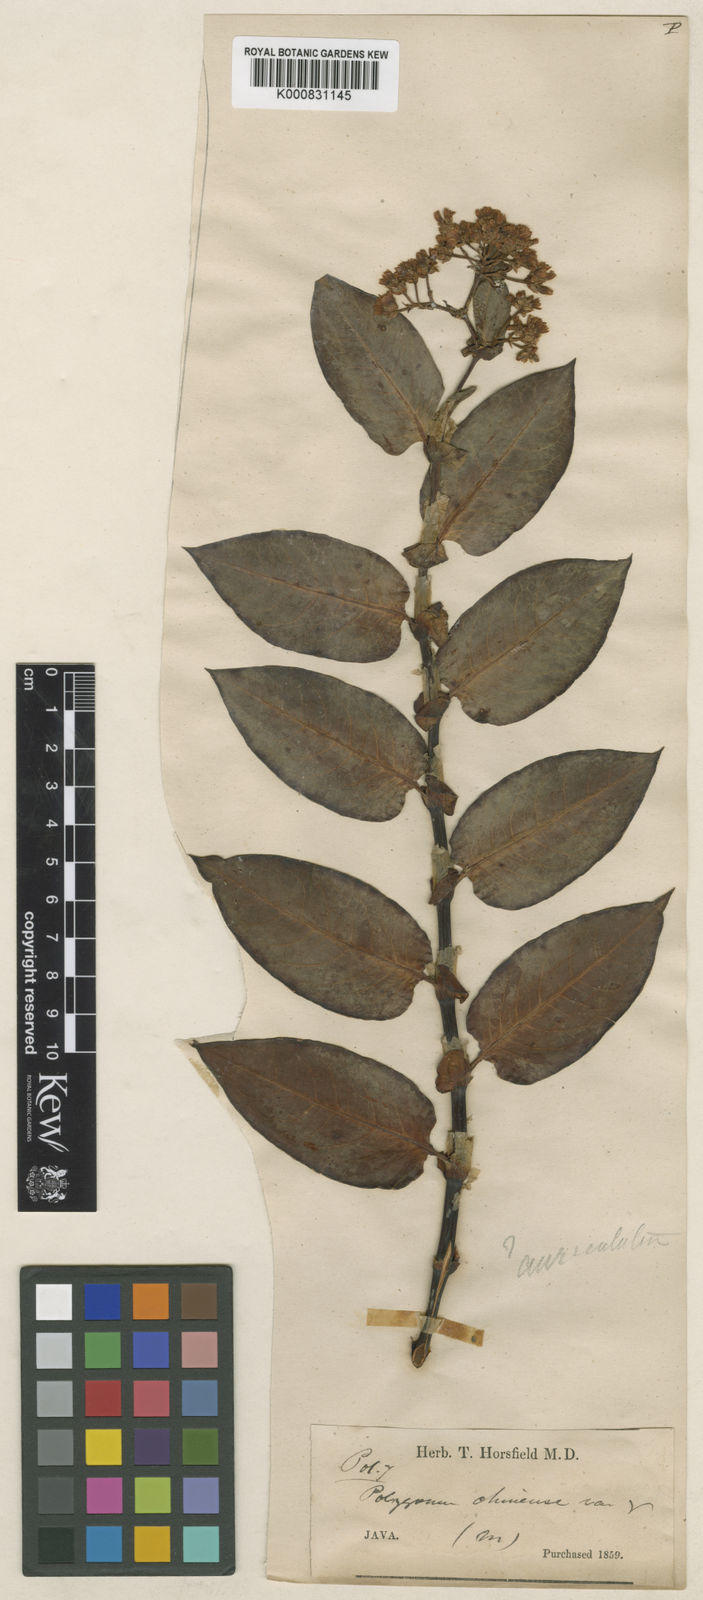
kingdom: Plantae
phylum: Tracheophyta
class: Magnoliopsida
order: Caryophyllales
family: Polygonaceae
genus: Persicaria
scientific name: Persicaria chinensis
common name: Chinese knotweed
